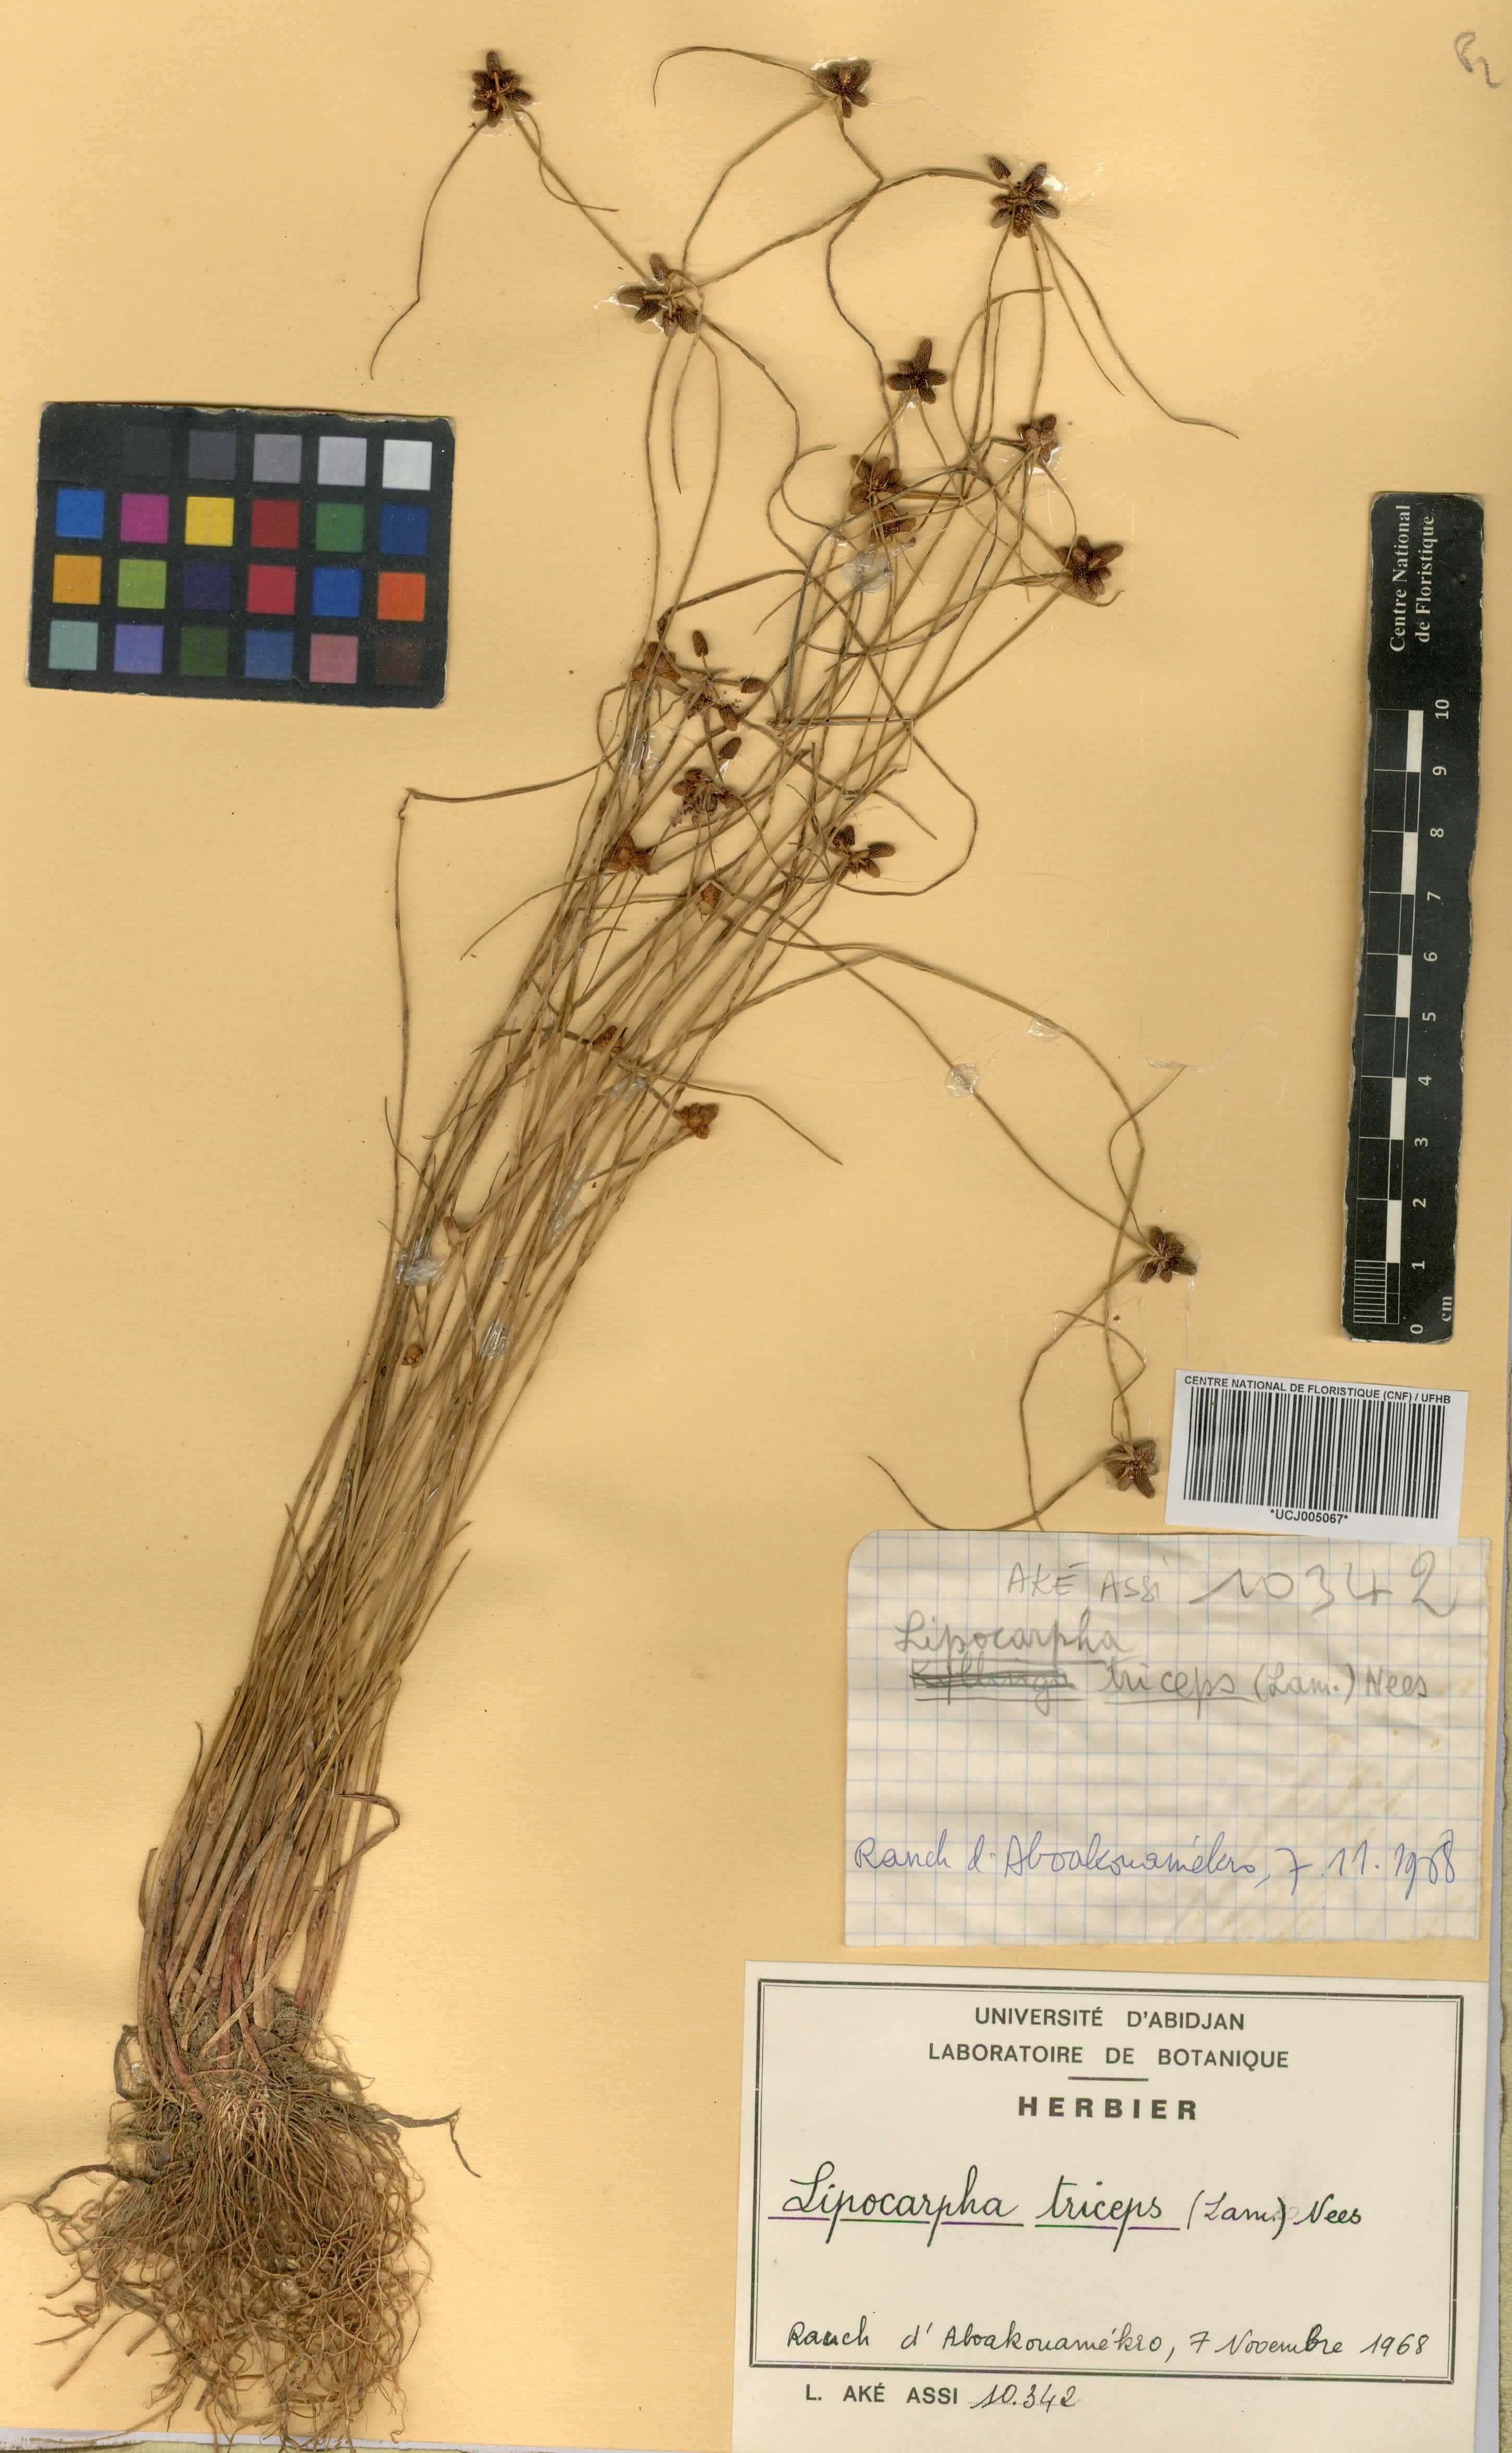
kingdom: Plantae
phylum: Tracheophyta
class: Liliopsida
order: Poales
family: Cyperaceae
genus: Cyperus
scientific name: Cyperus ceylanicus
